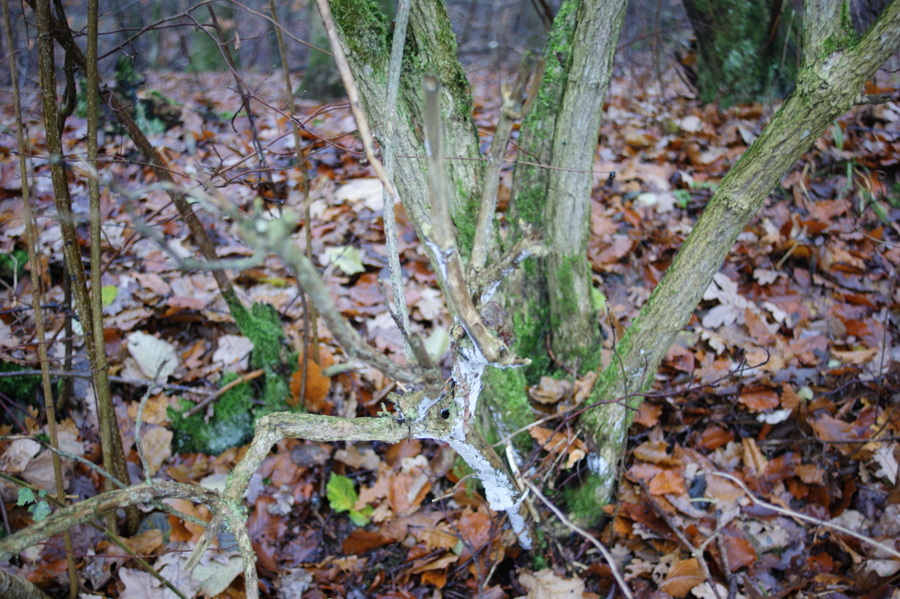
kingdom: Fungi
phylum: Basidiomycota
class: Agaricomycetes
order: Corticiales
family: Corticiaceae
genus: Lyomyces
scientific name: Lyomyces sambuci
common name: almindelig hyldehinde
